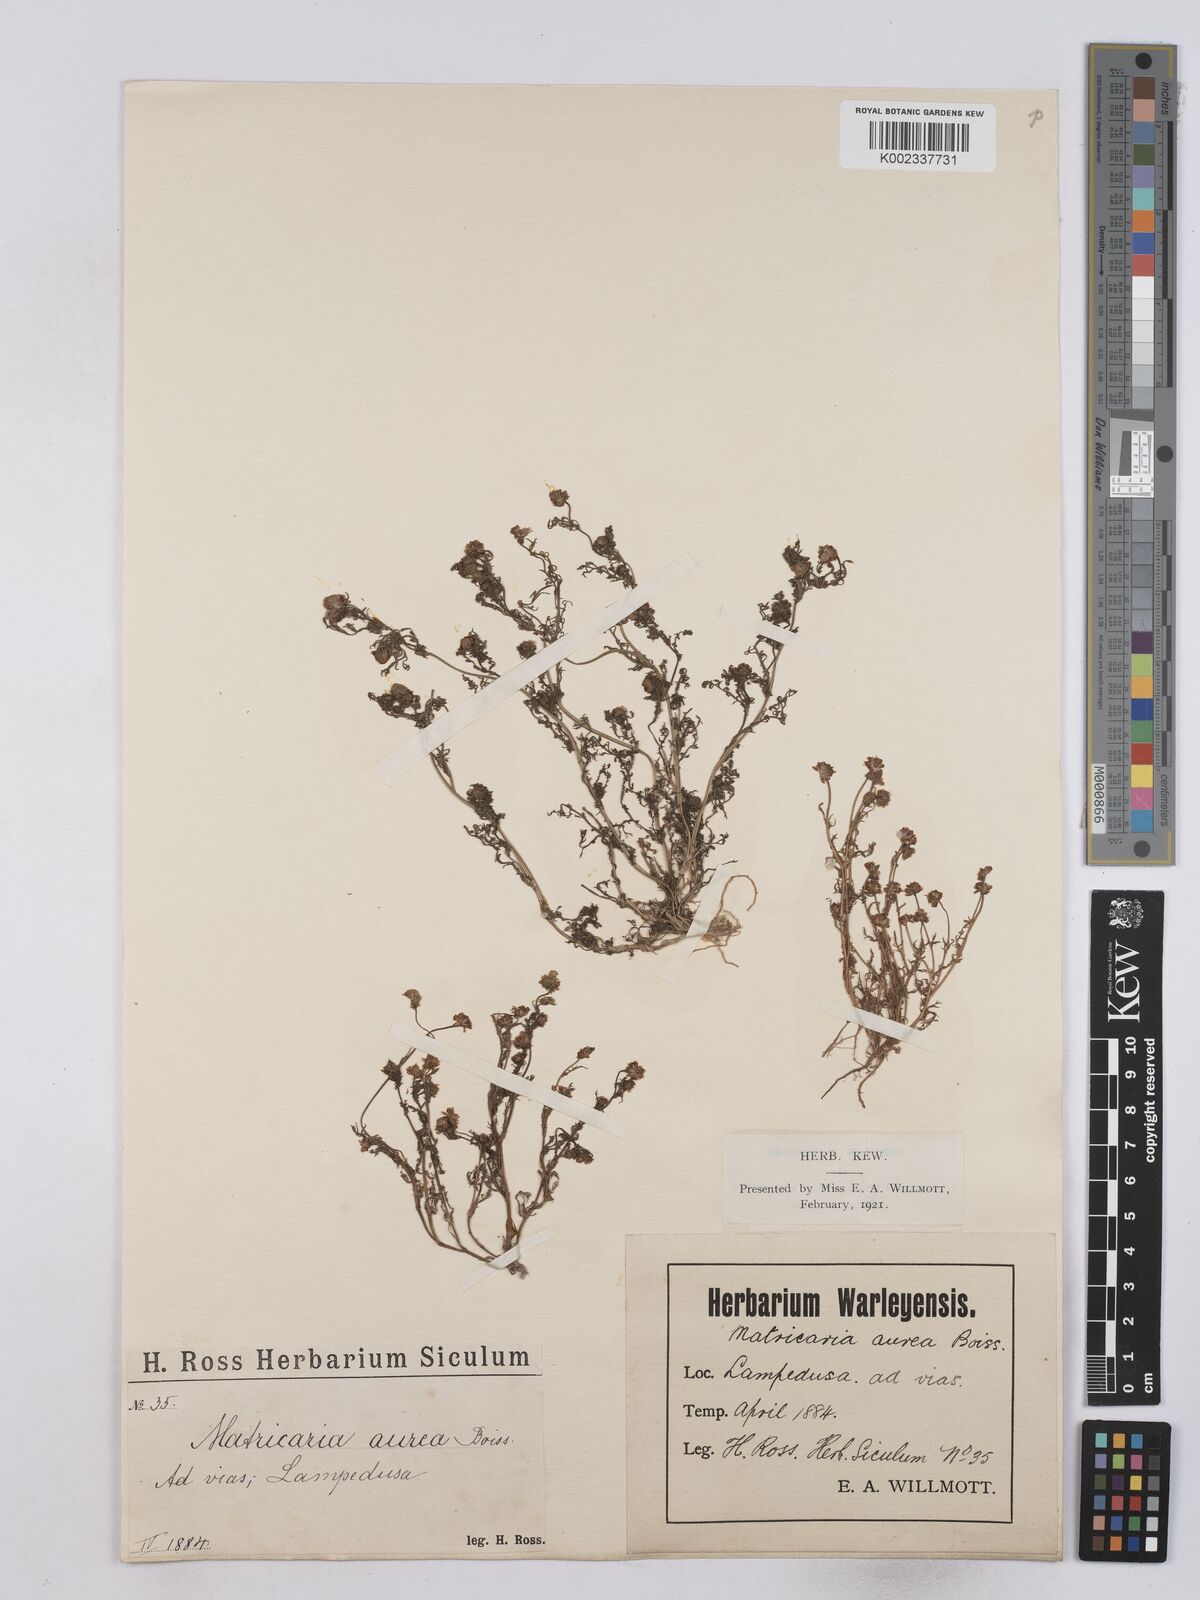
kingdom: Plantae
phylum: Tracheophyta
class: Magnoliopsida
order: Asterales
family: Asteraceae
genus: Matricaria
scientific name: Matricaria aurea
